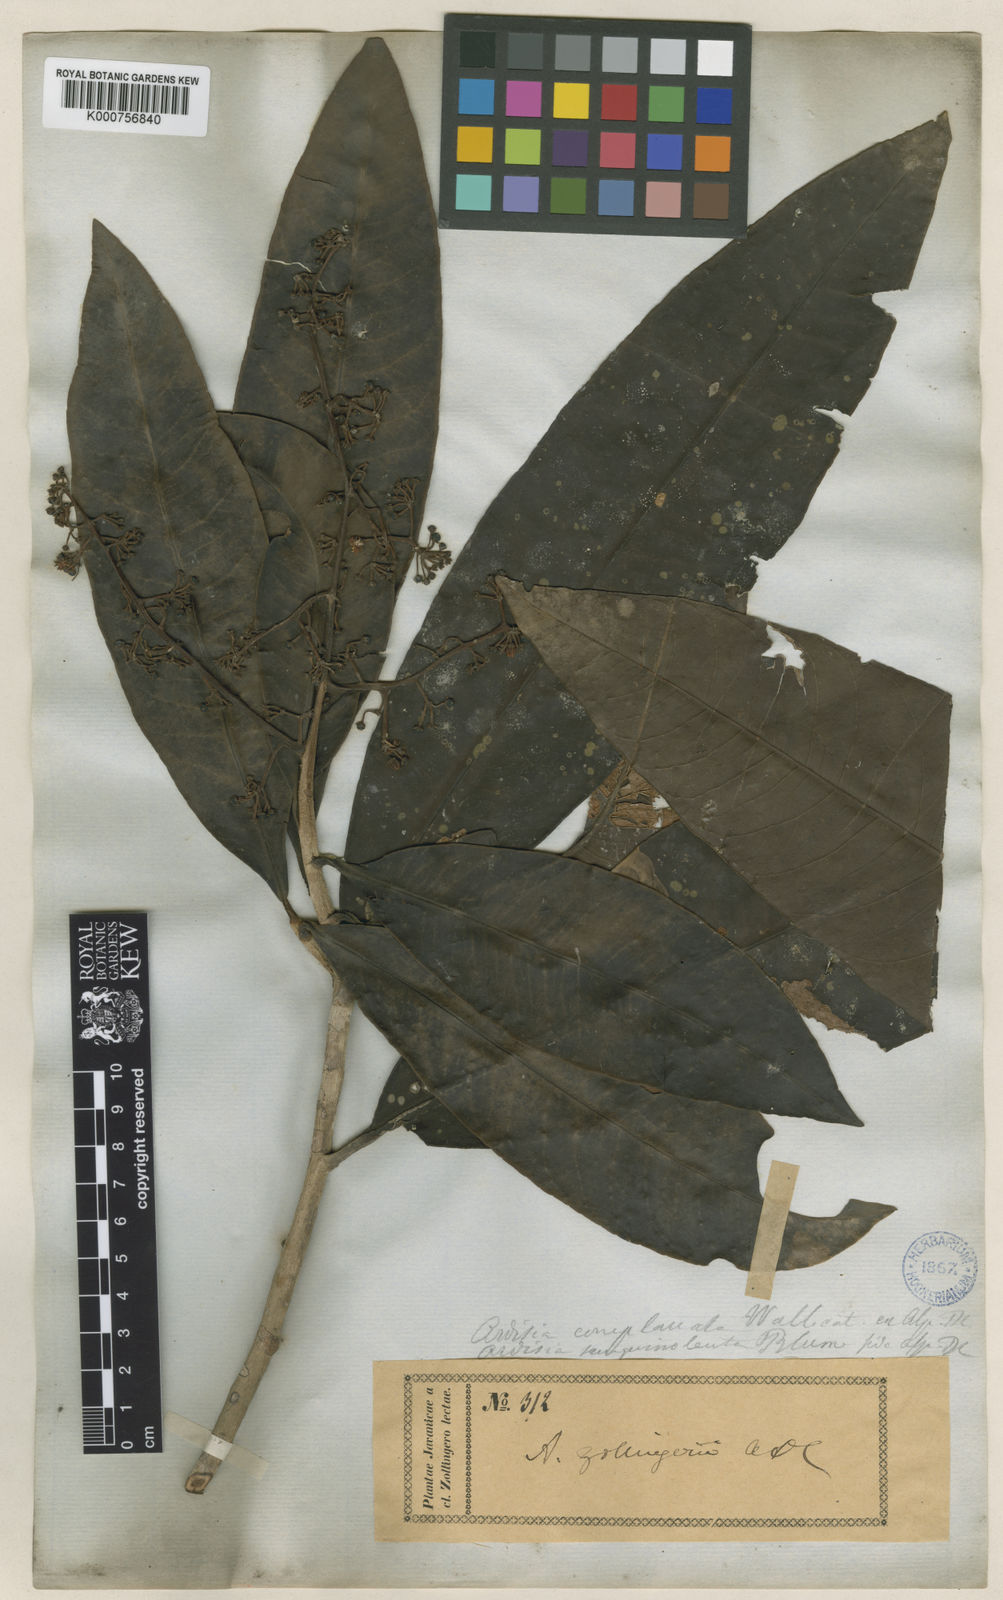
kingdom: Plantae
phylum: Tracheophyta
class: Magnoliopsida
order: Ericales
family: Primulaceae
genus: Ardisia
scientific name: Ardisia complanata
